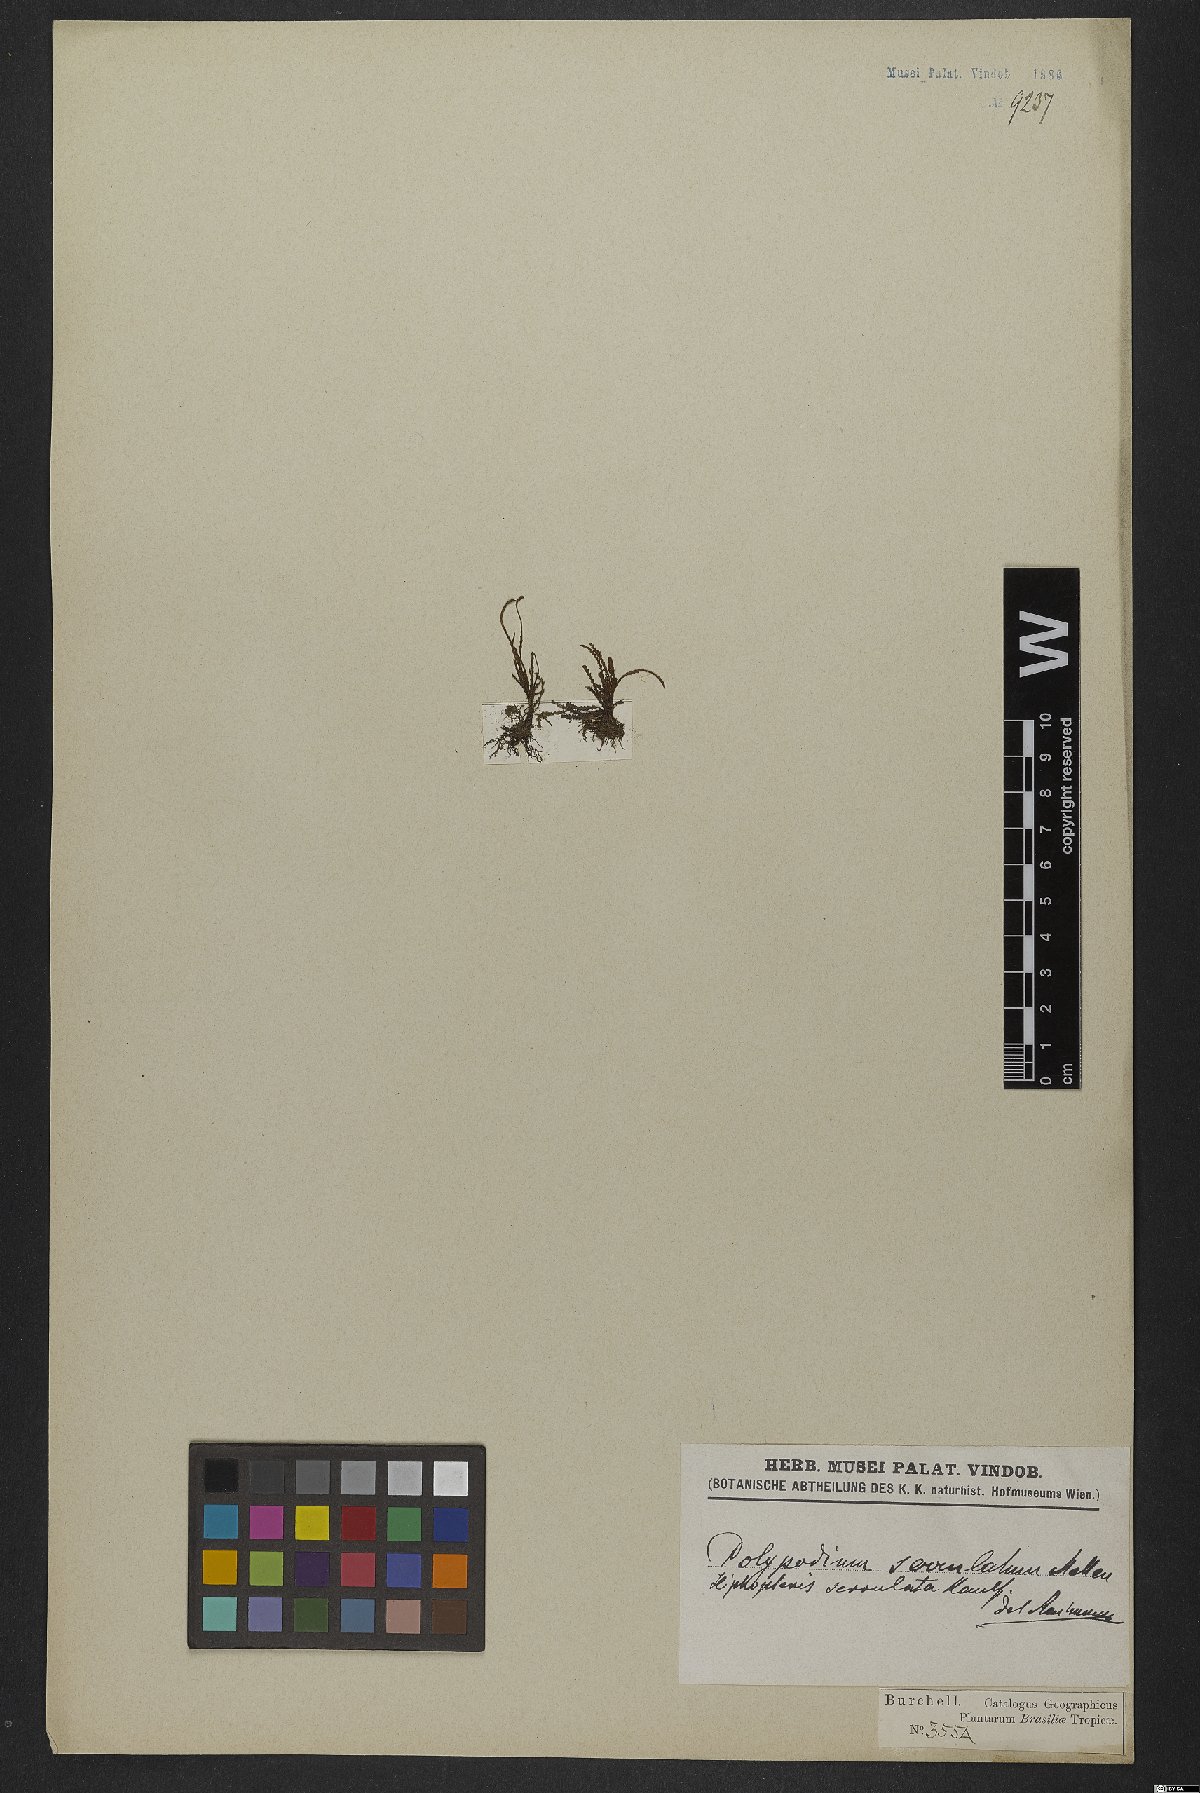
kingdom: Plantae
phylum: Tracheophyta
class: Polypodiopsida
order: Polypodiales
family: Polypodiaceae
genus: Cochlidium
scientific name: Cochlidium serrulatum
